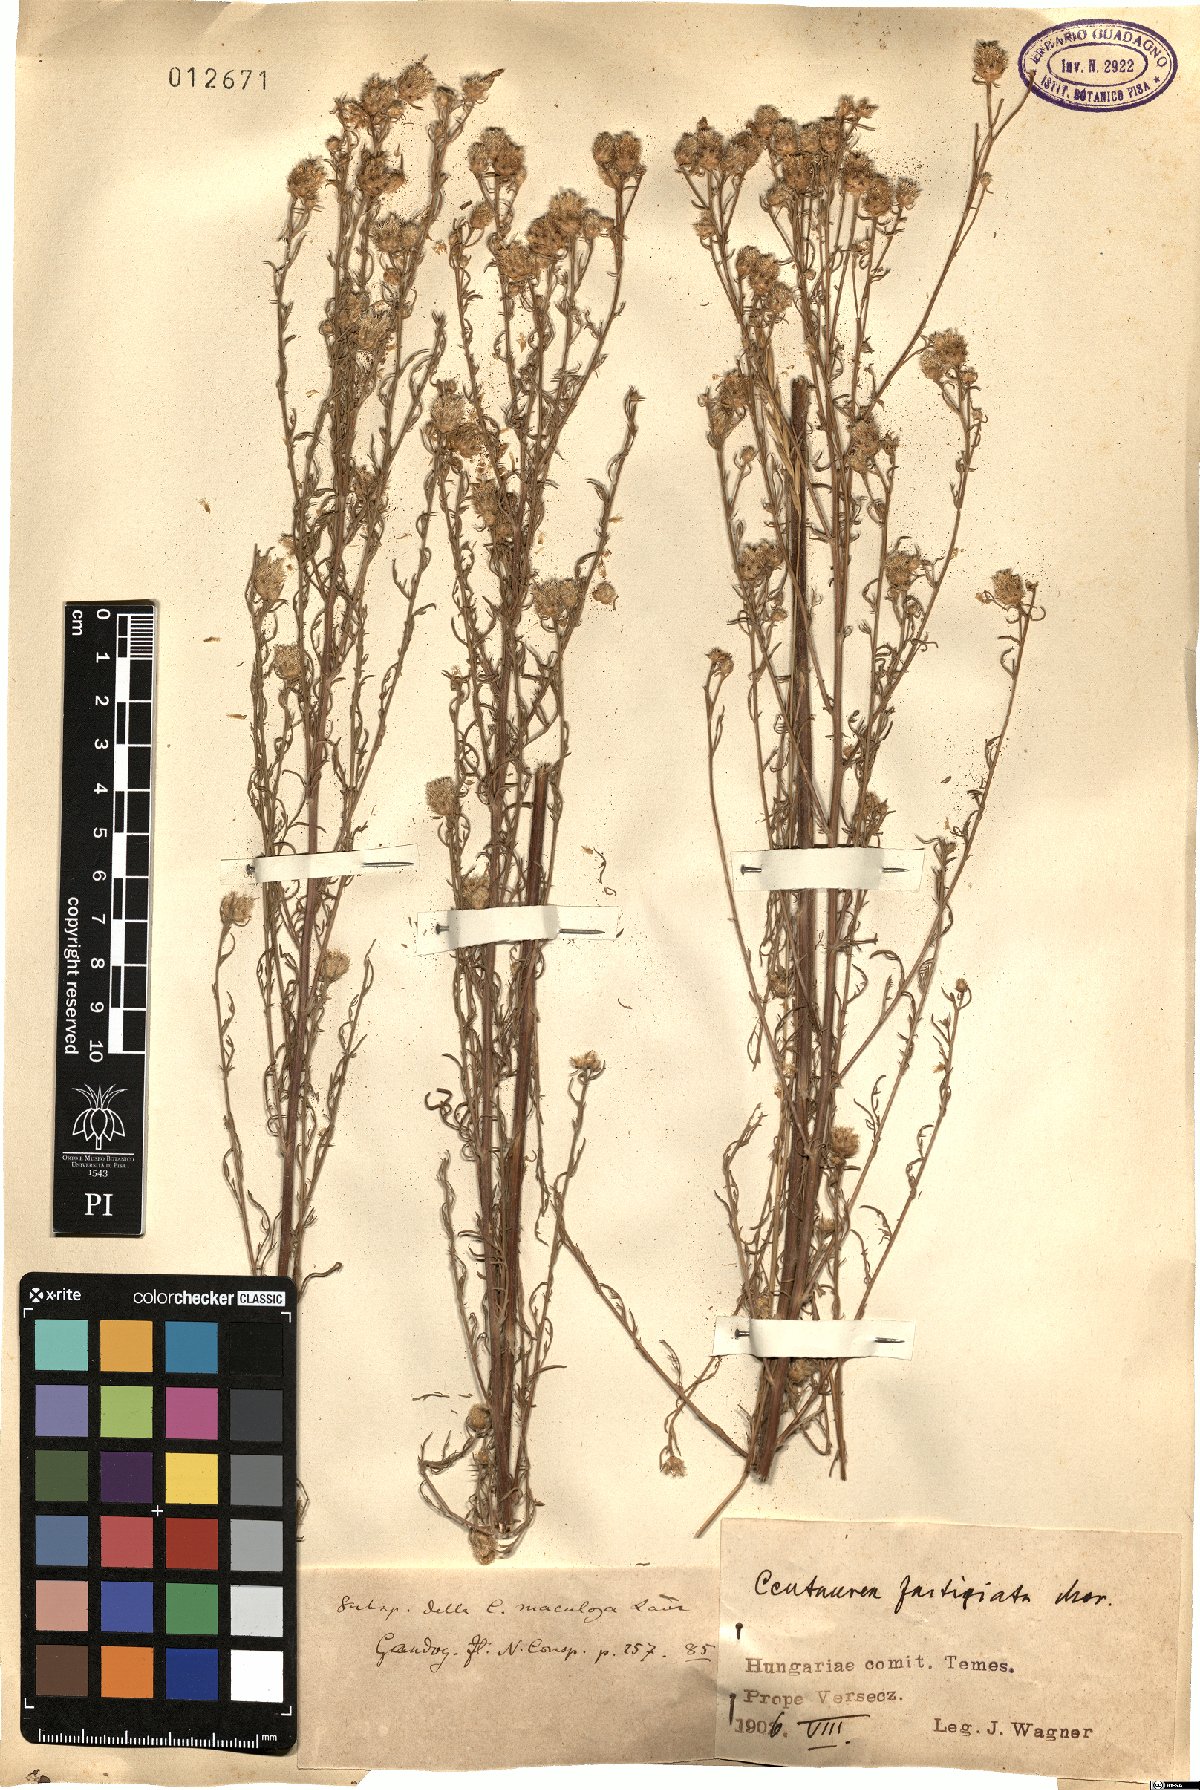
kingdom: Plantae
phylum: Tracheophyta
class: Magnoliopsida
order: Asterales
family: Asteraceae
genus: Centaurea
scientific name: Centaurea kanitziana
